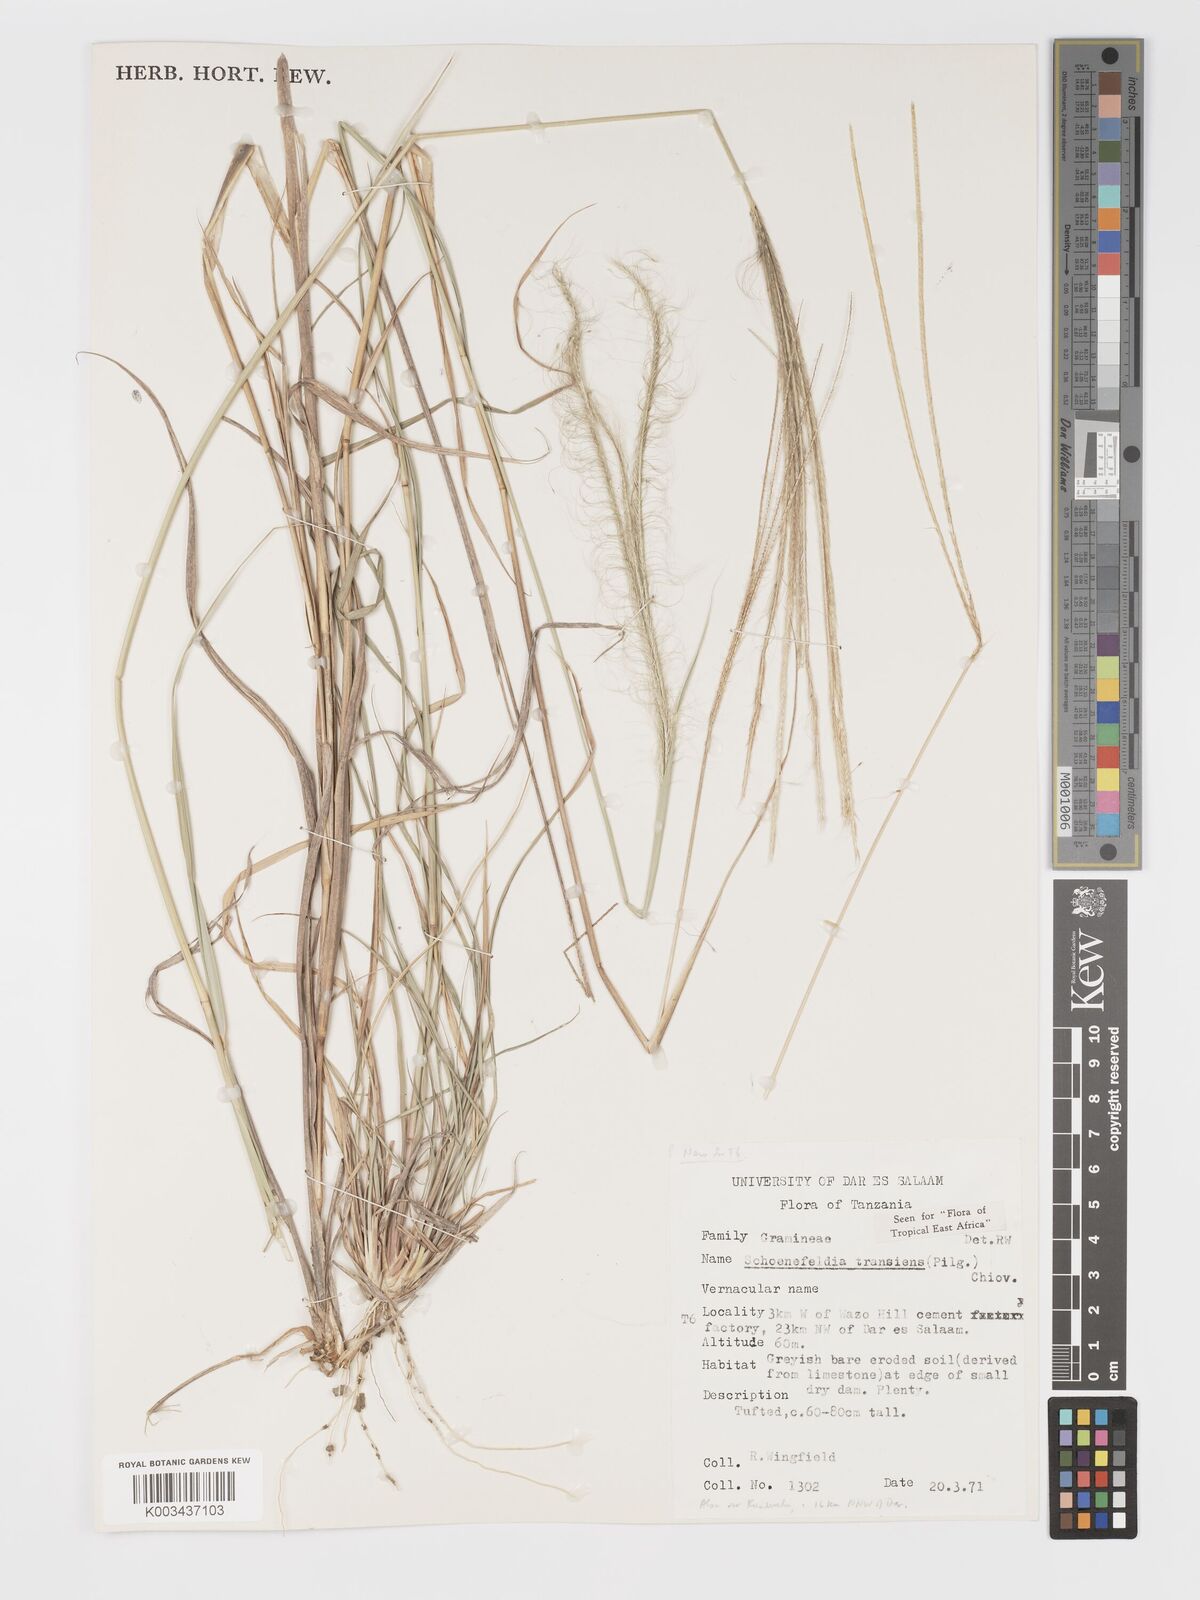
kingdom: Plantae
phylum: Tracheophyta
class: Liliopsida
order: Poales
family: Poaceae
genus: Schoenefeldia
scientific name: Schoenefeldia transiens
